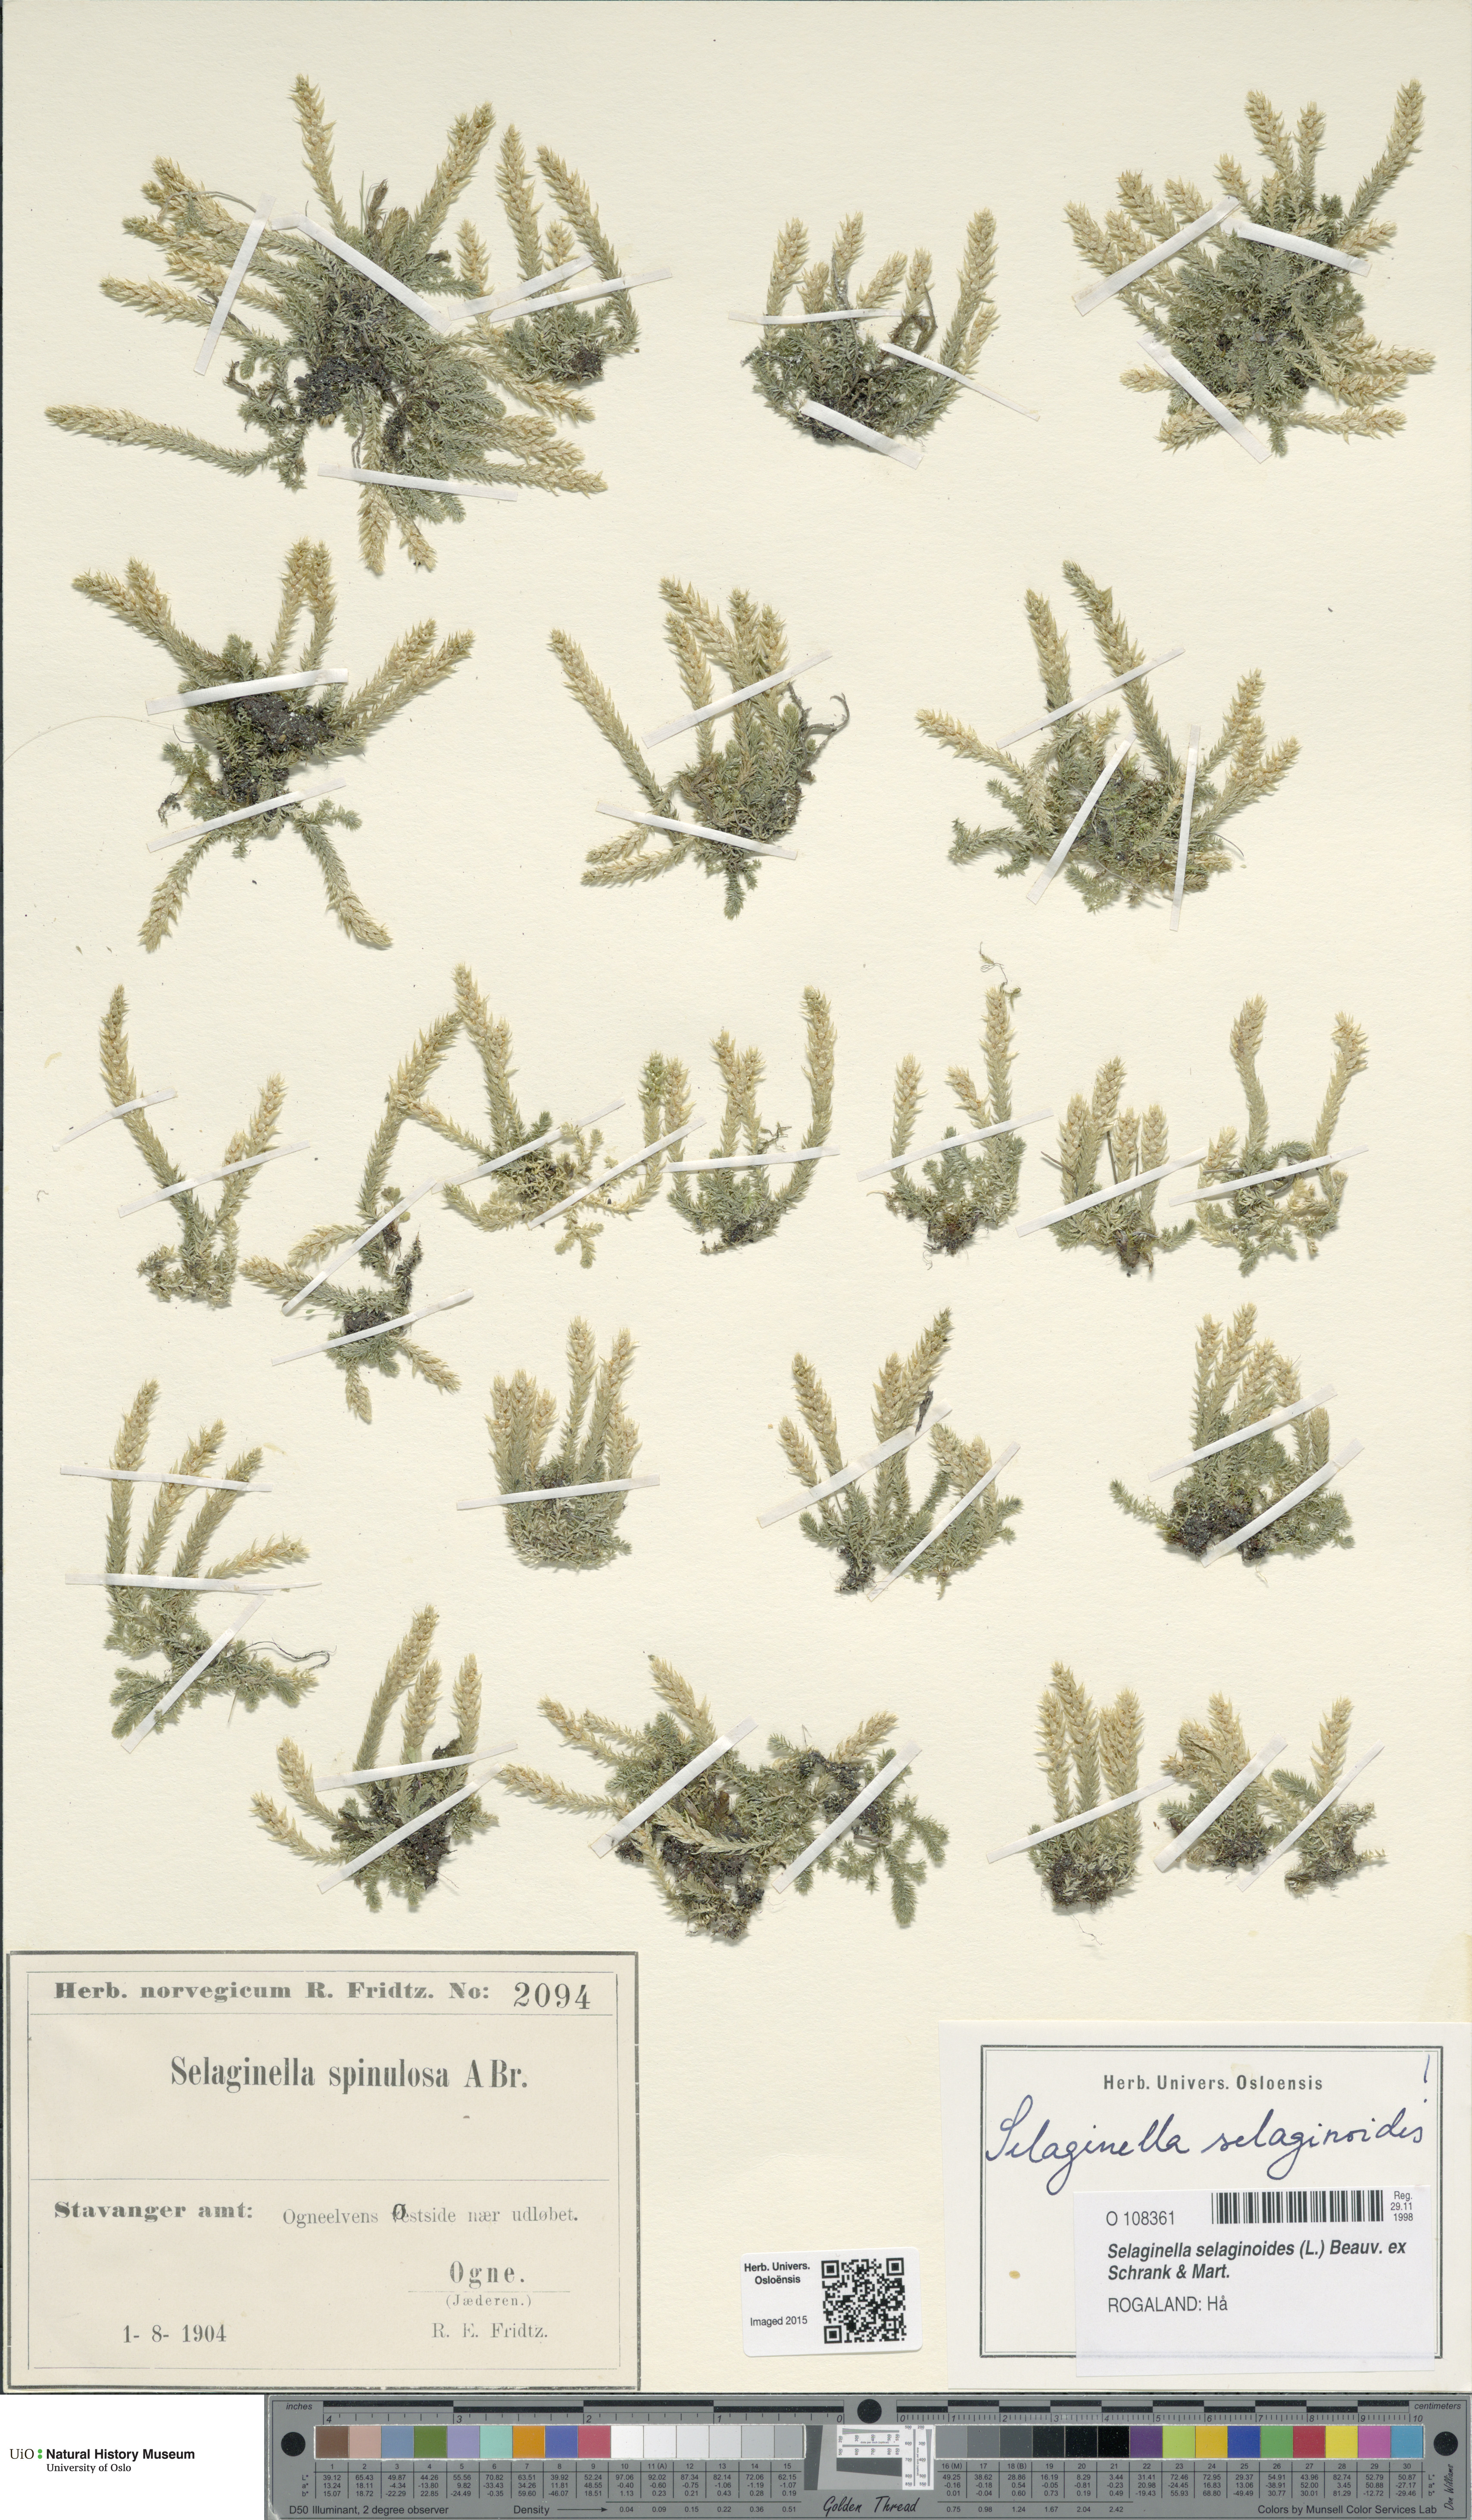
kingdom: Plantae
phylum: Tracheophyta
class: Lycopodiopsida
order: Selaginellales
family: Selaginellaceae
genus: Selaginella
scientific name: Selaginella selaginoides
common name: Prickly mountain-moss
